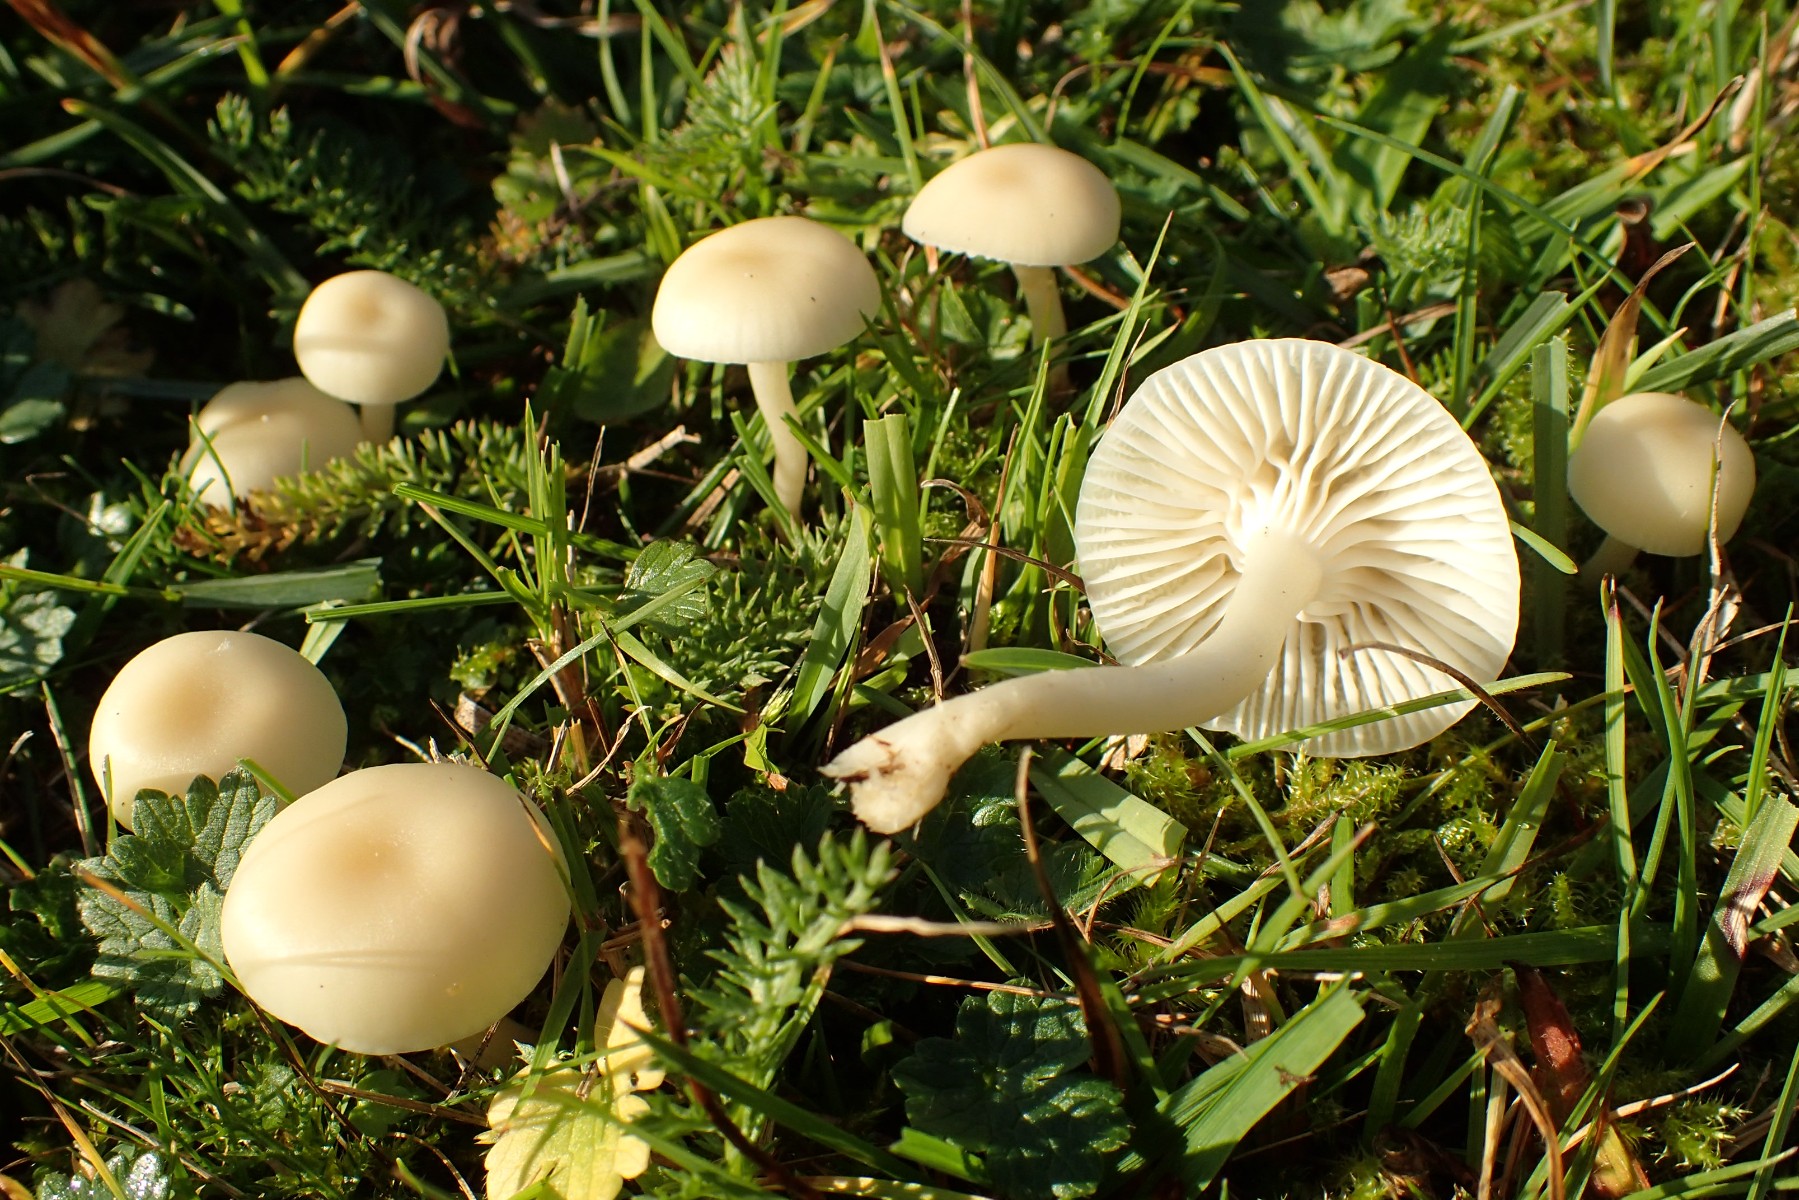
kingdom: Fungi
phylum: Basidiomycota
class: Agaricomycetes
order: Agaricales
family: Hygrophoraceae
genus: Cuphophyllus
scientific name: Cuphophyllus russocoriaceus
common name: ruslæder-vokshat
